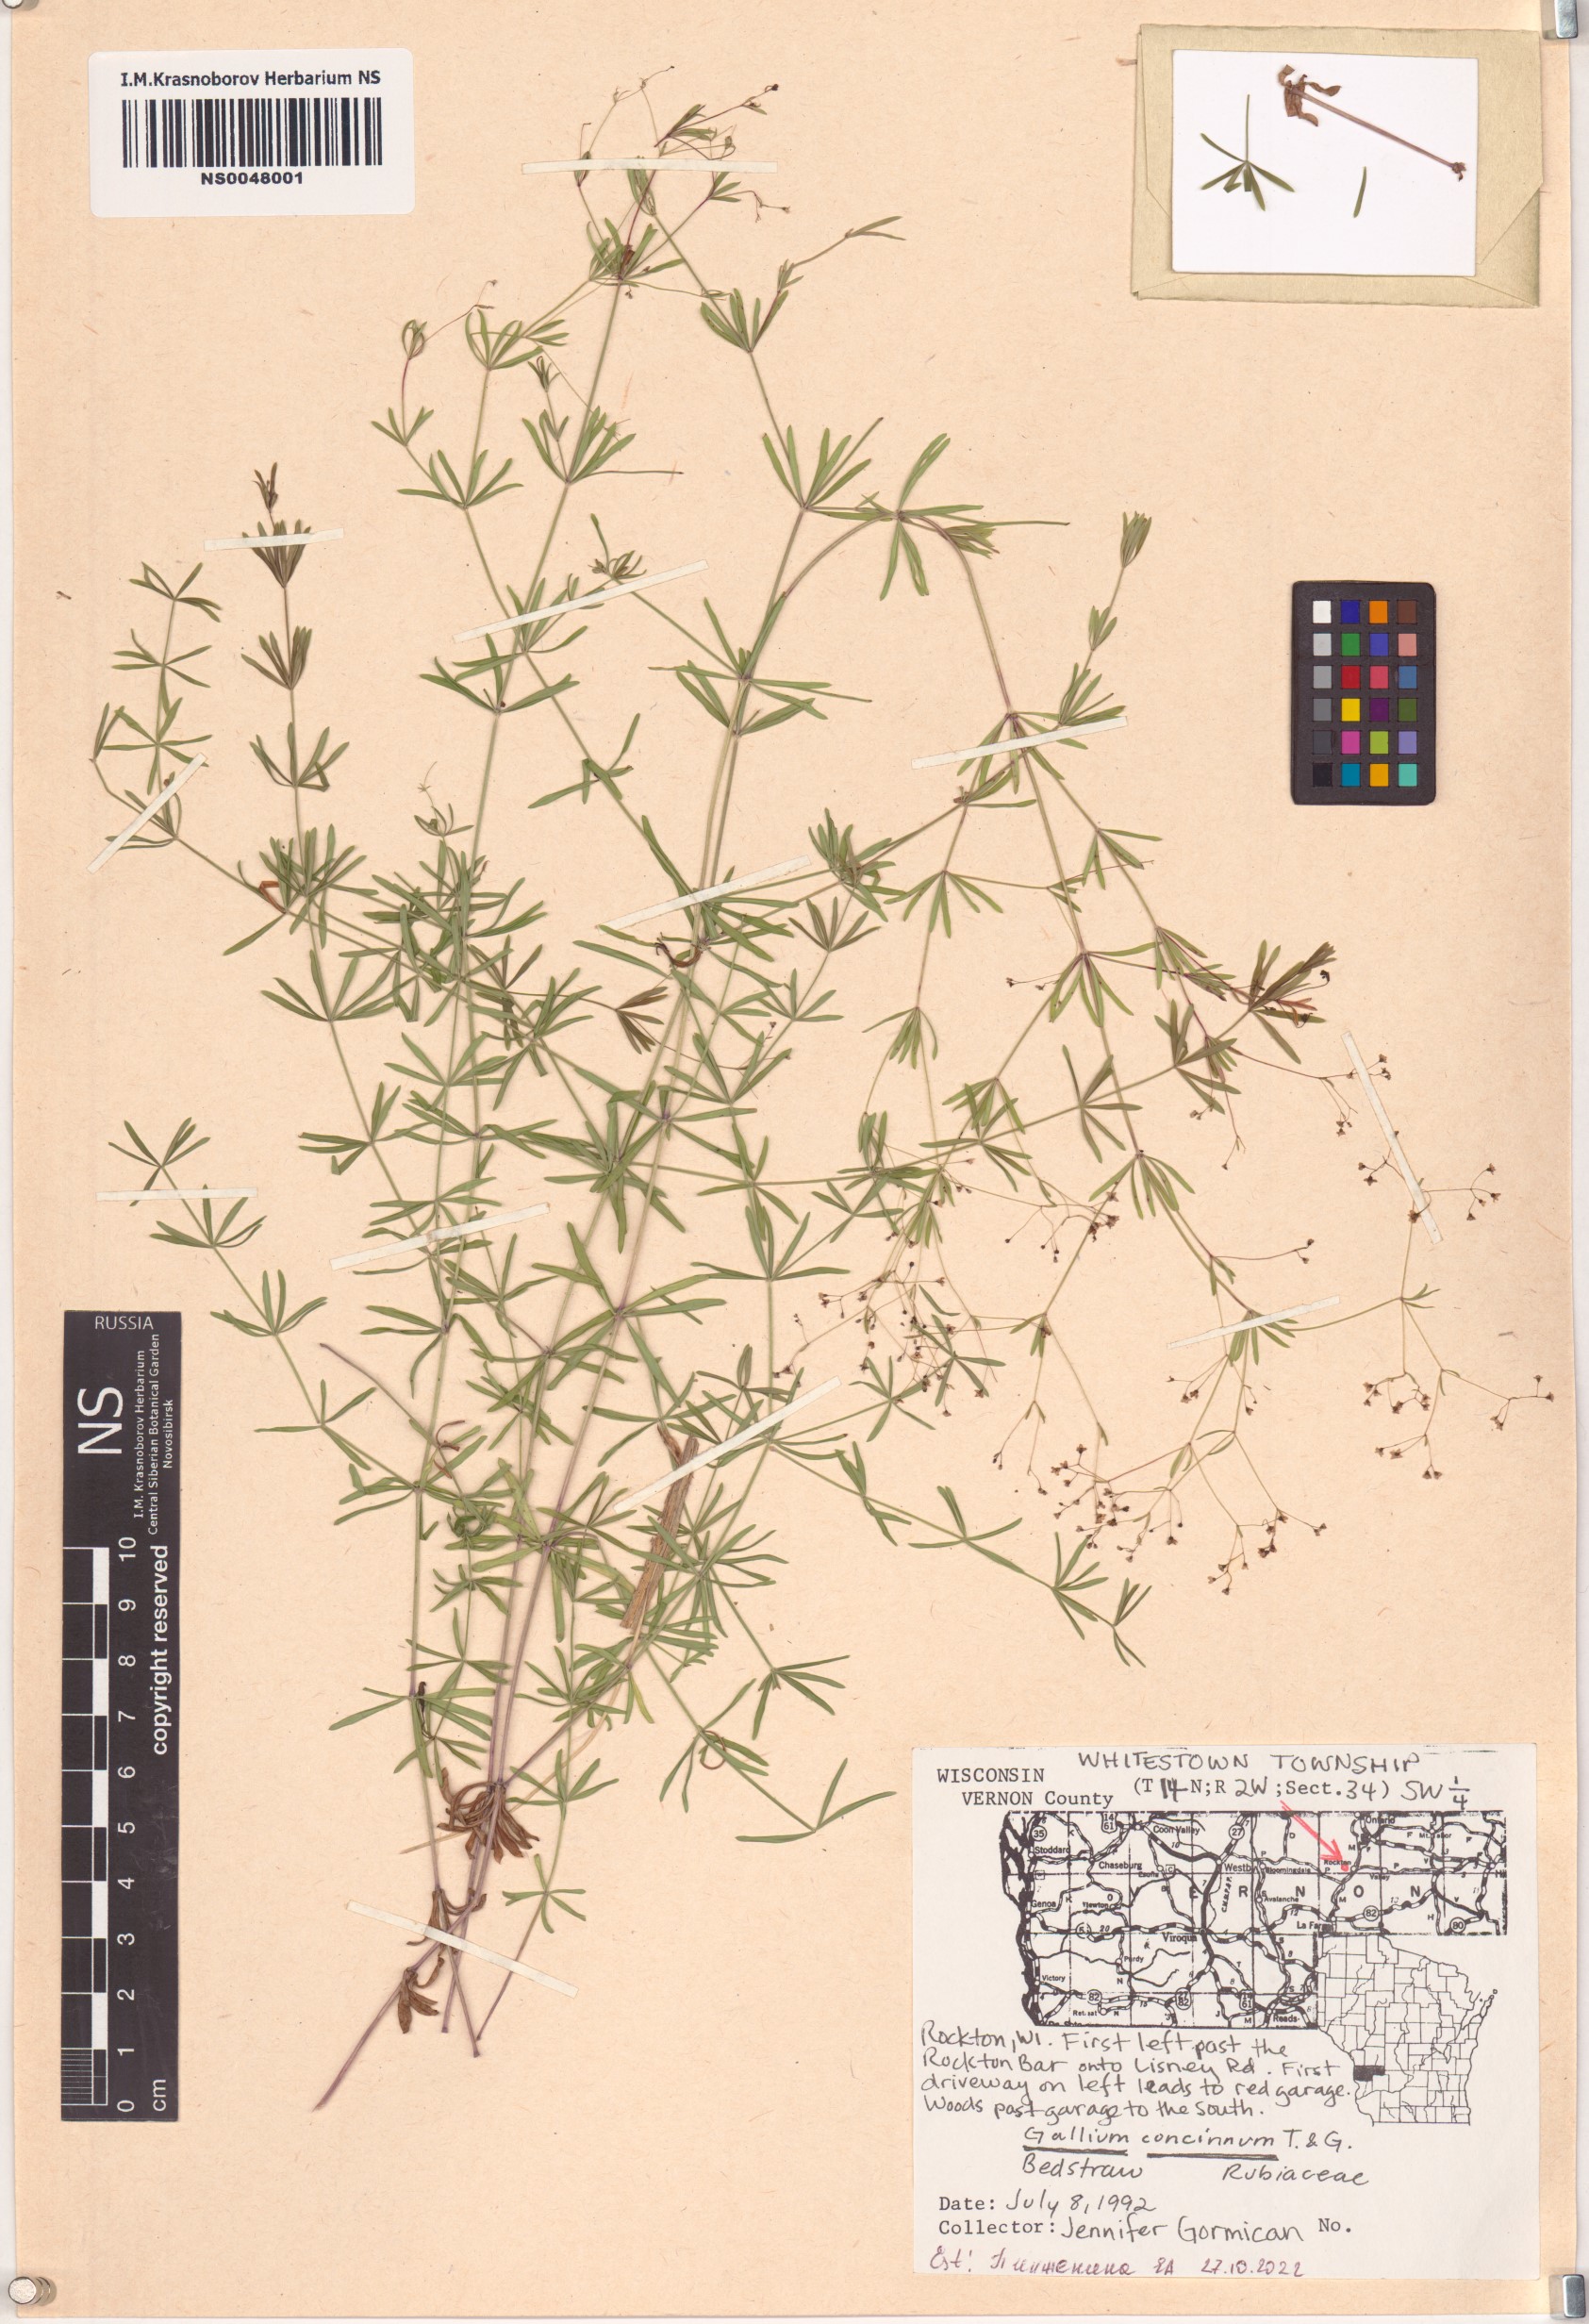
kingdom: Plantae
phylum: Tracheophyta
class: Magnoliopsida
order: Gentianales
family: Rubiaceae
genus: Galium
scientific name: Galium concinnum
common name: Shining bedstraw
